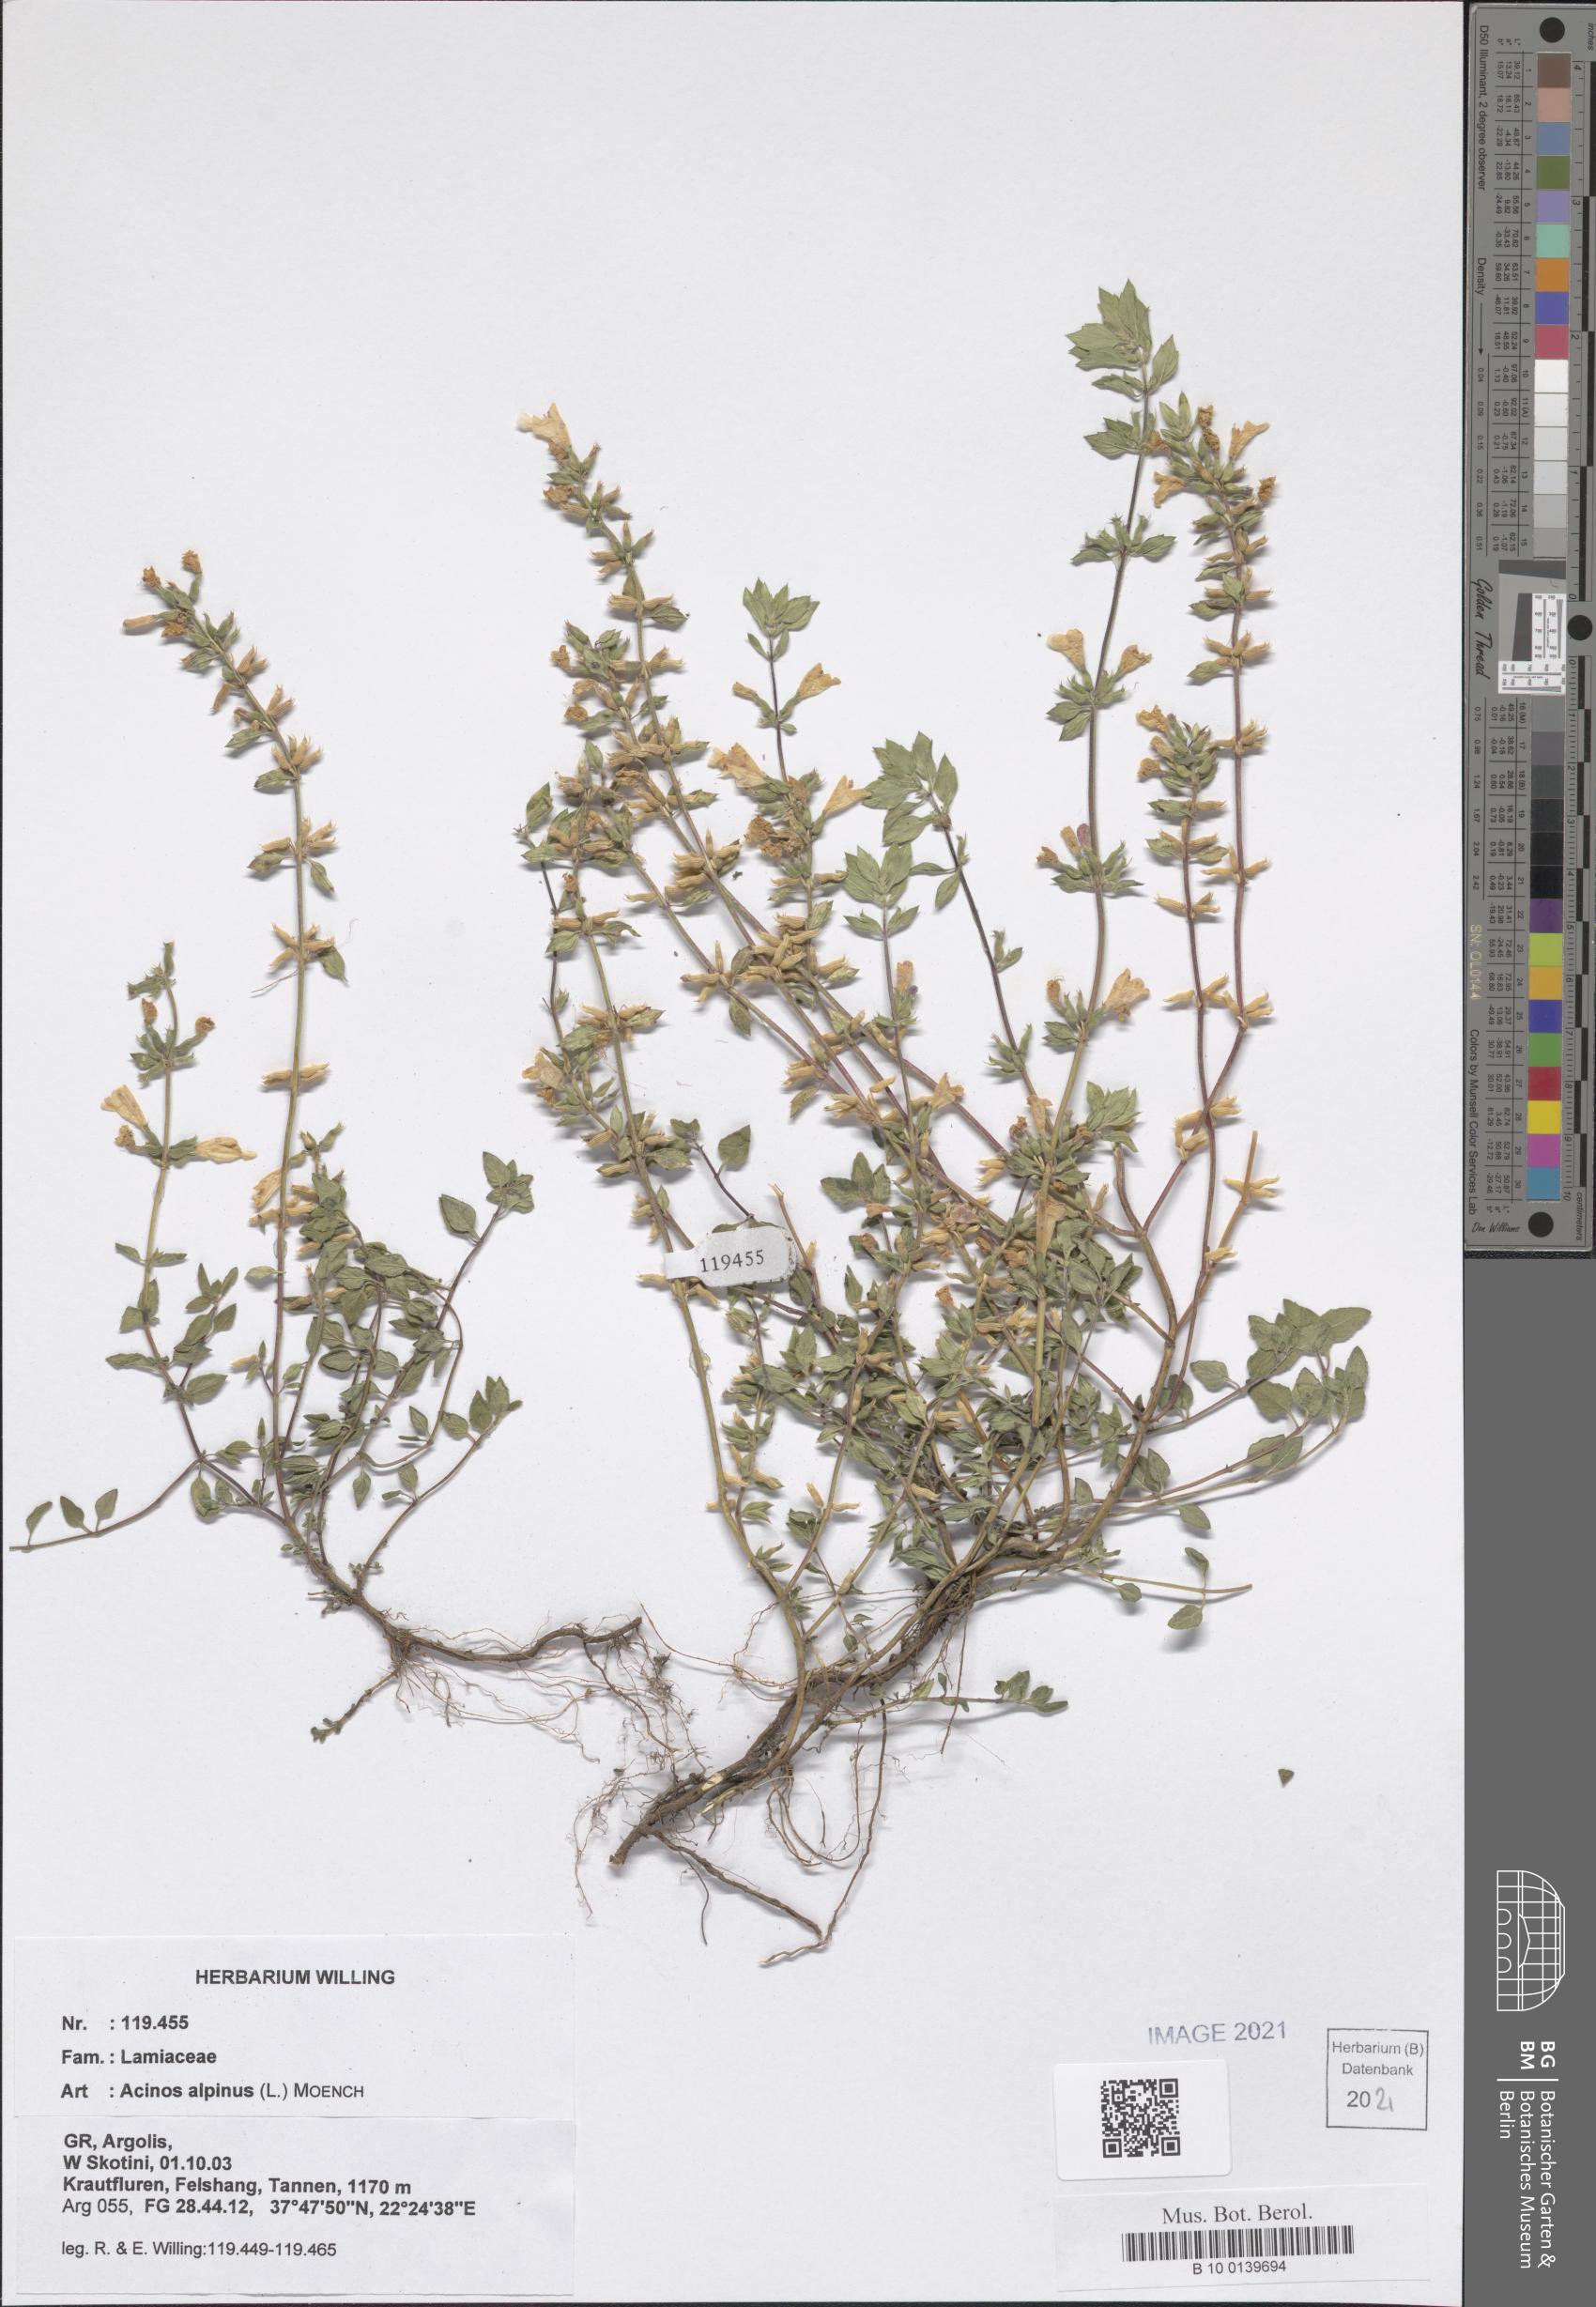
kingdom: Plantae
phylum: Tracheophyta
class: Magnoliopsida
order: Lamiales
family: Lamiaceae
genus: Clinopodium
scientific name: Clinopodium alpinum
